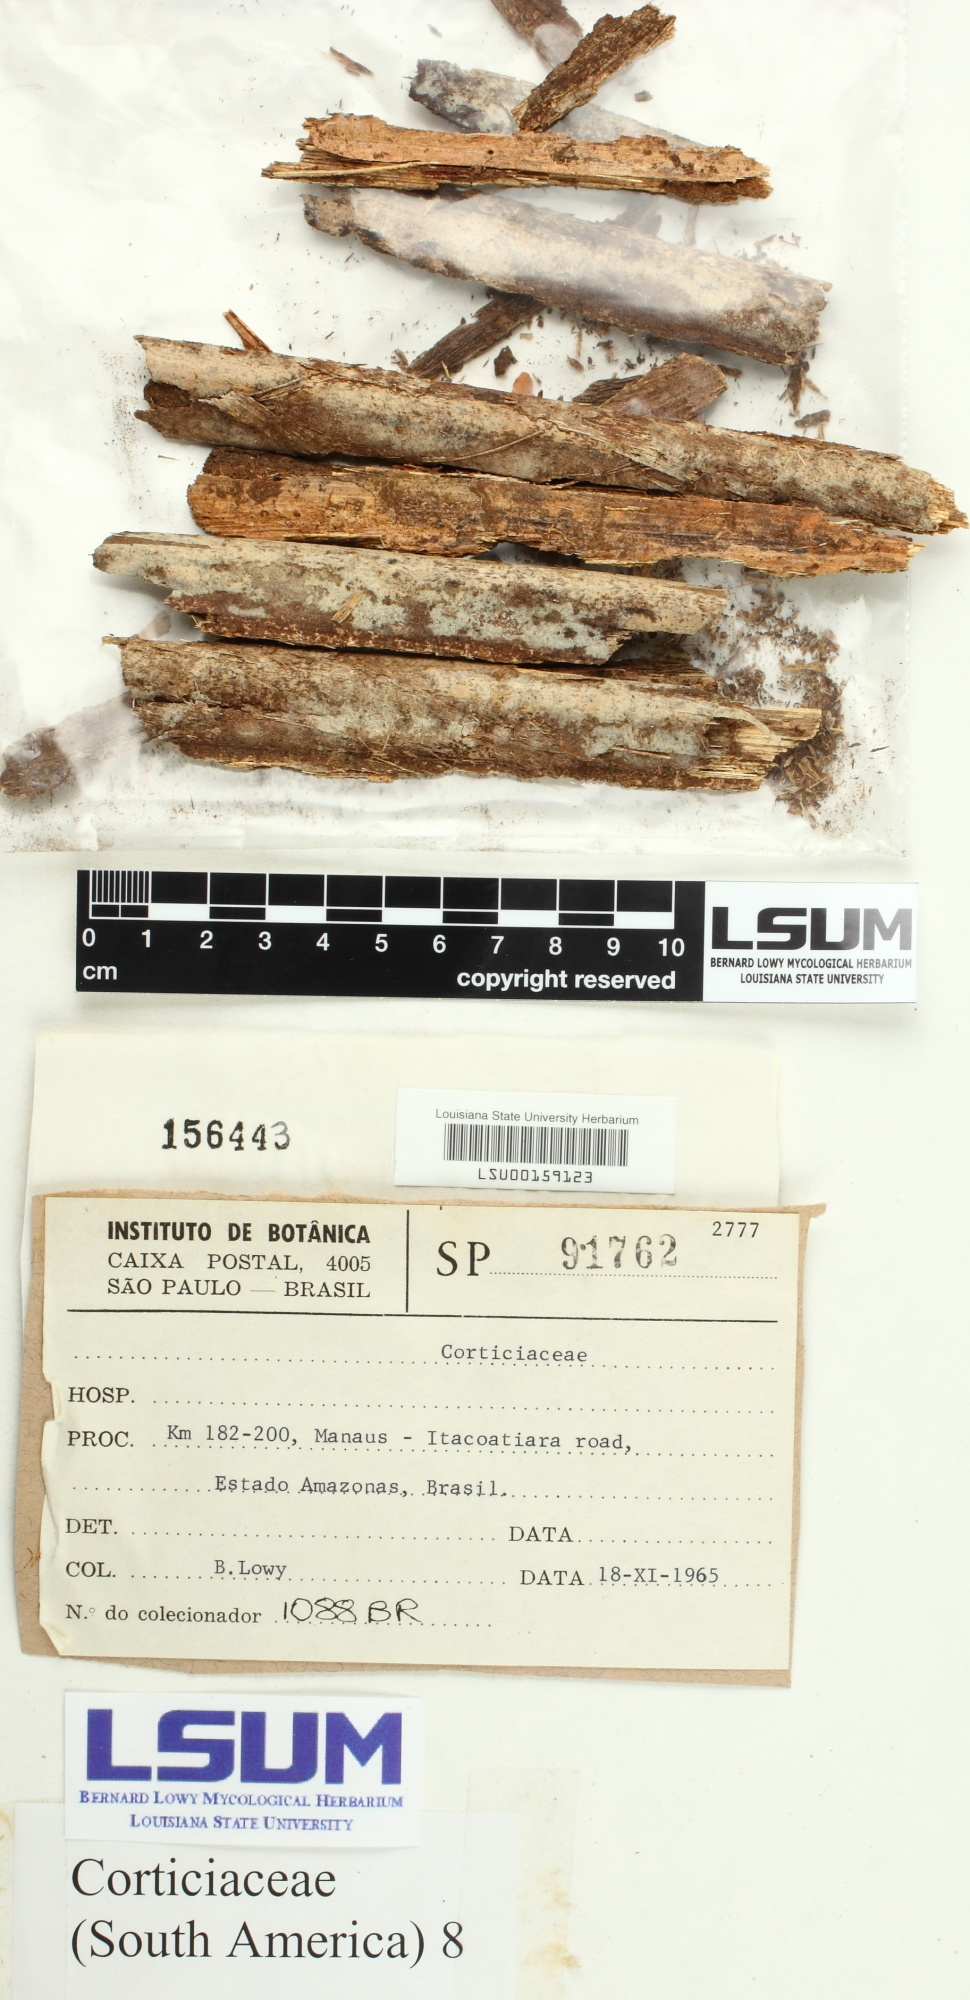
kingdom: Fungi
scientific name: Fungi
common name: Fungi
